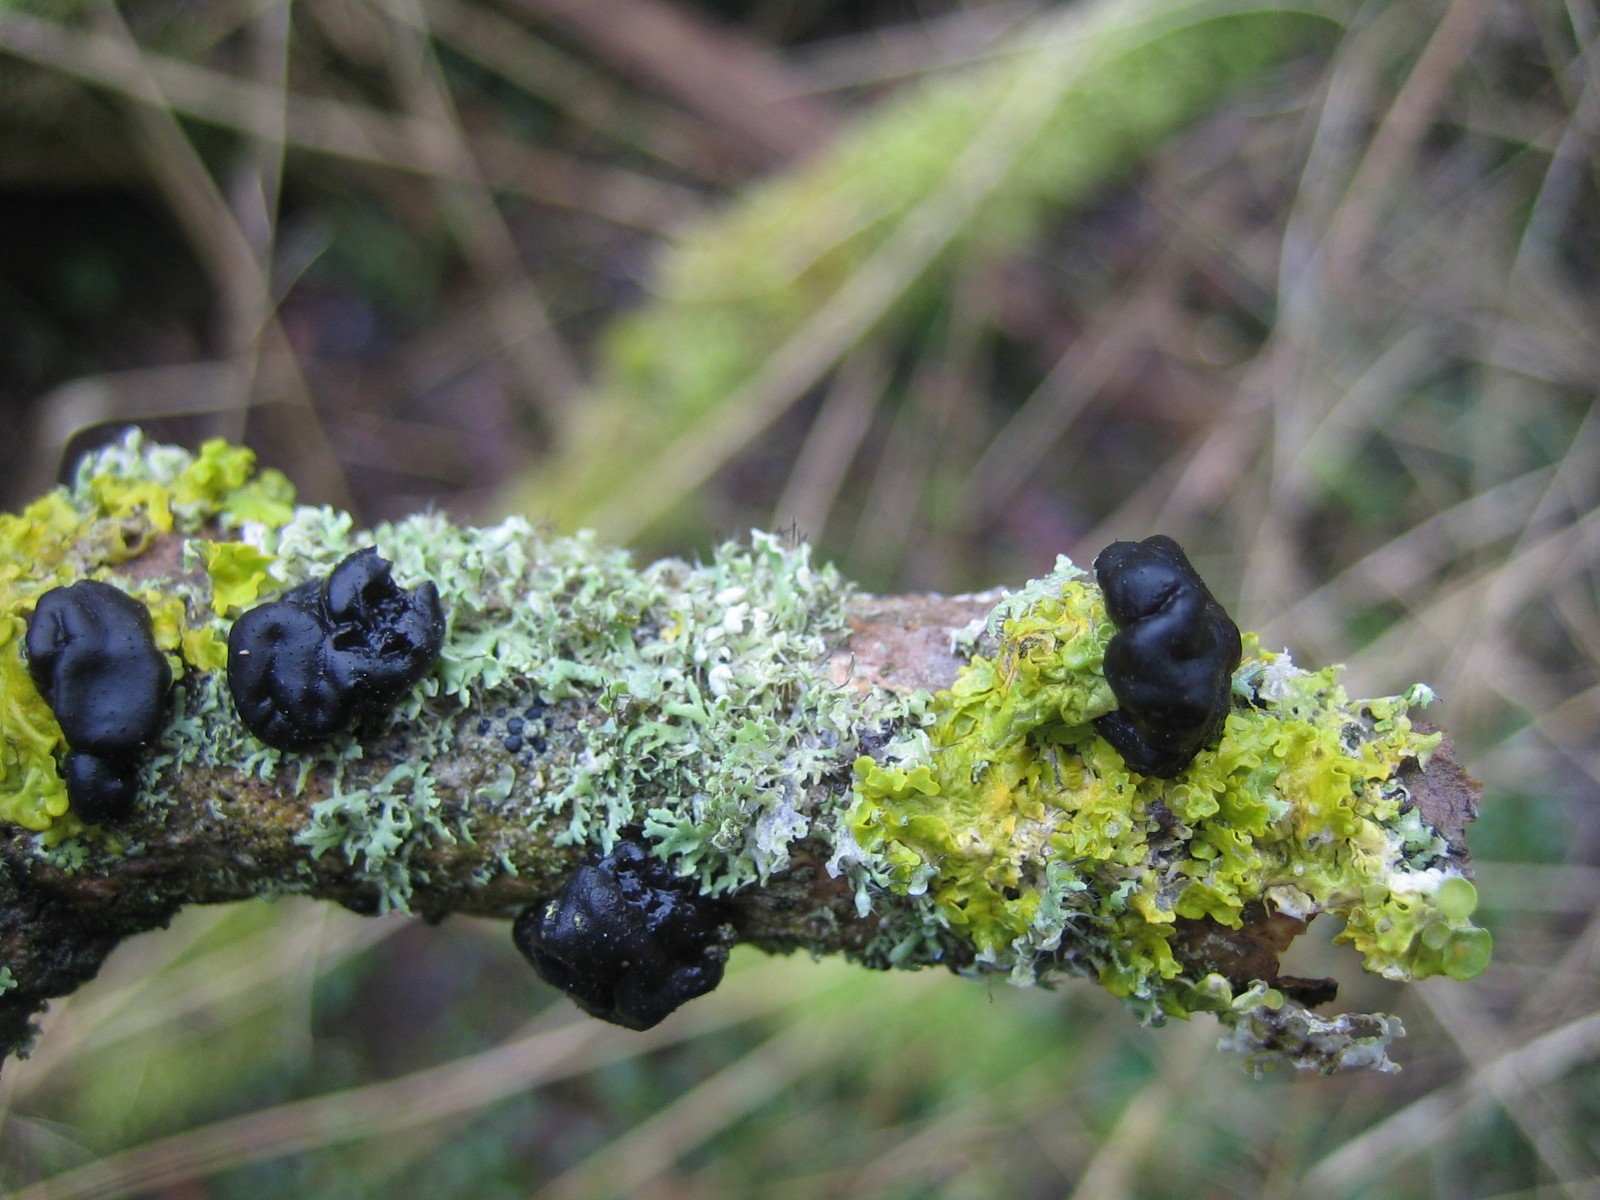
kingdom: Fungi
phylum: Basidiomycota
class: Agaricomycetes
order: Auriculariales
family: Auriculariaceae
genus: Exidia
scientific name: Exidia nigricans
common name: almindelig bævretop
